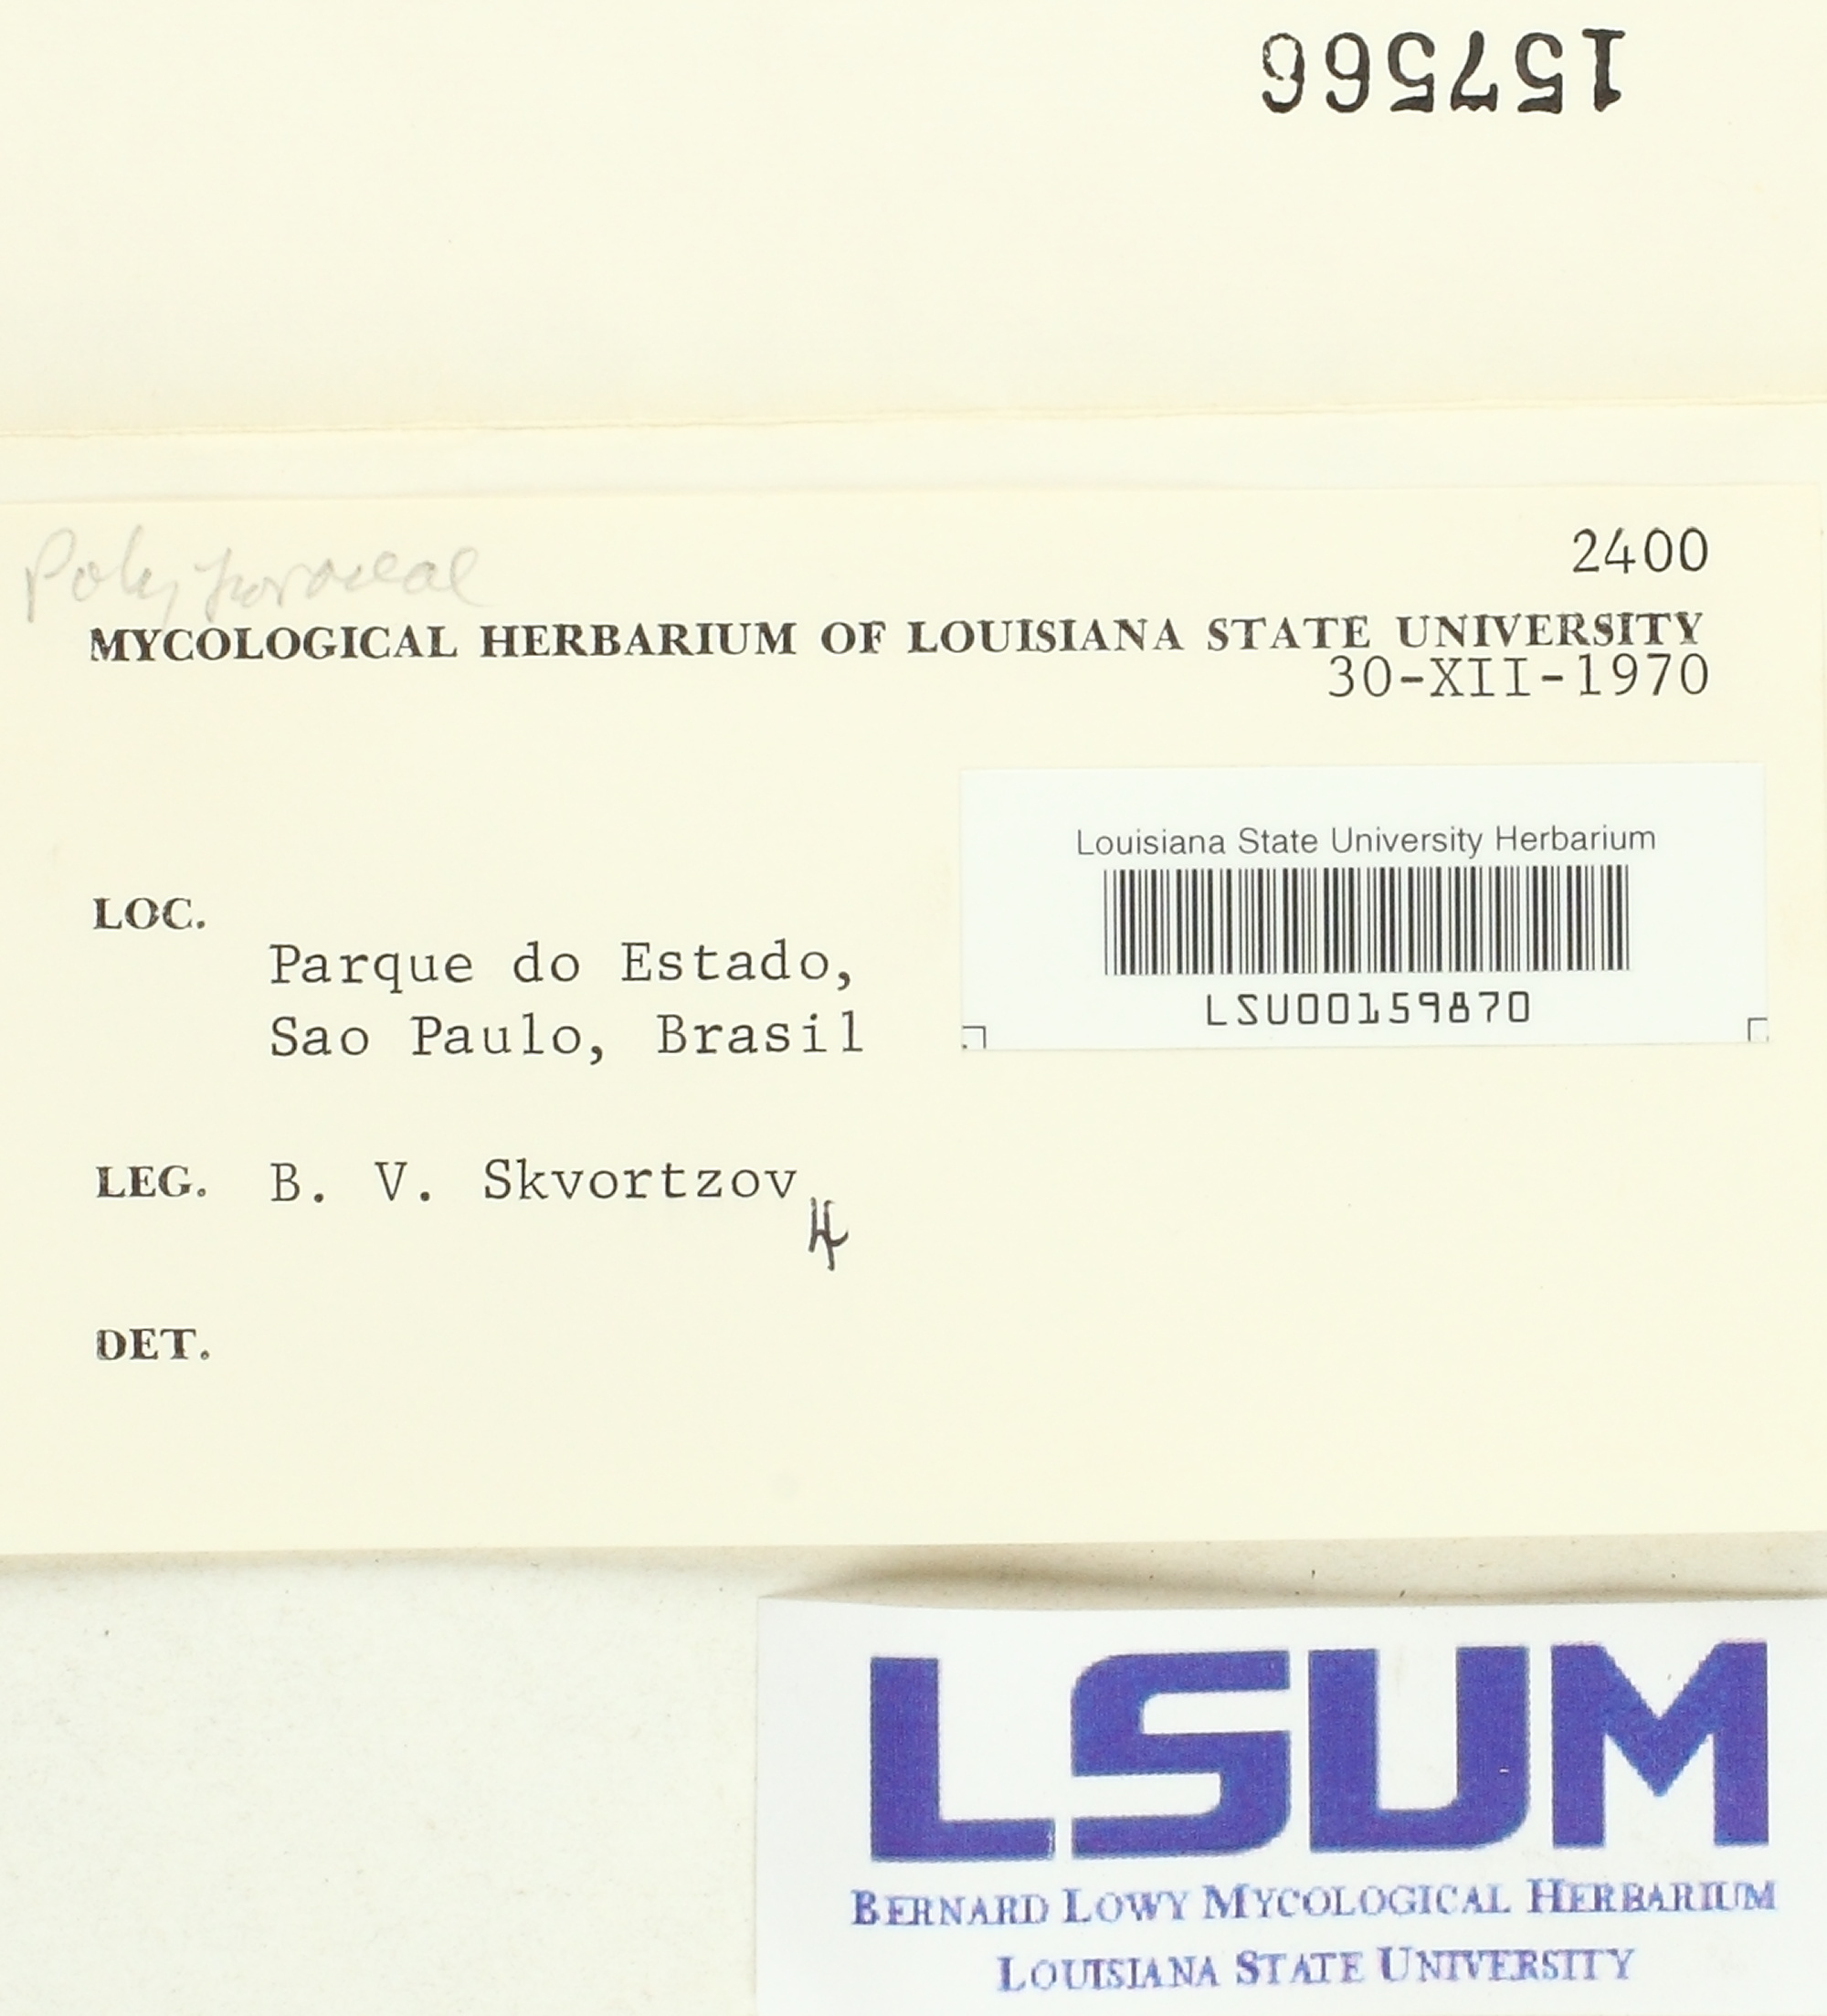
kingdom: Fungi
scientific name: Fungi
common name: Fungi
